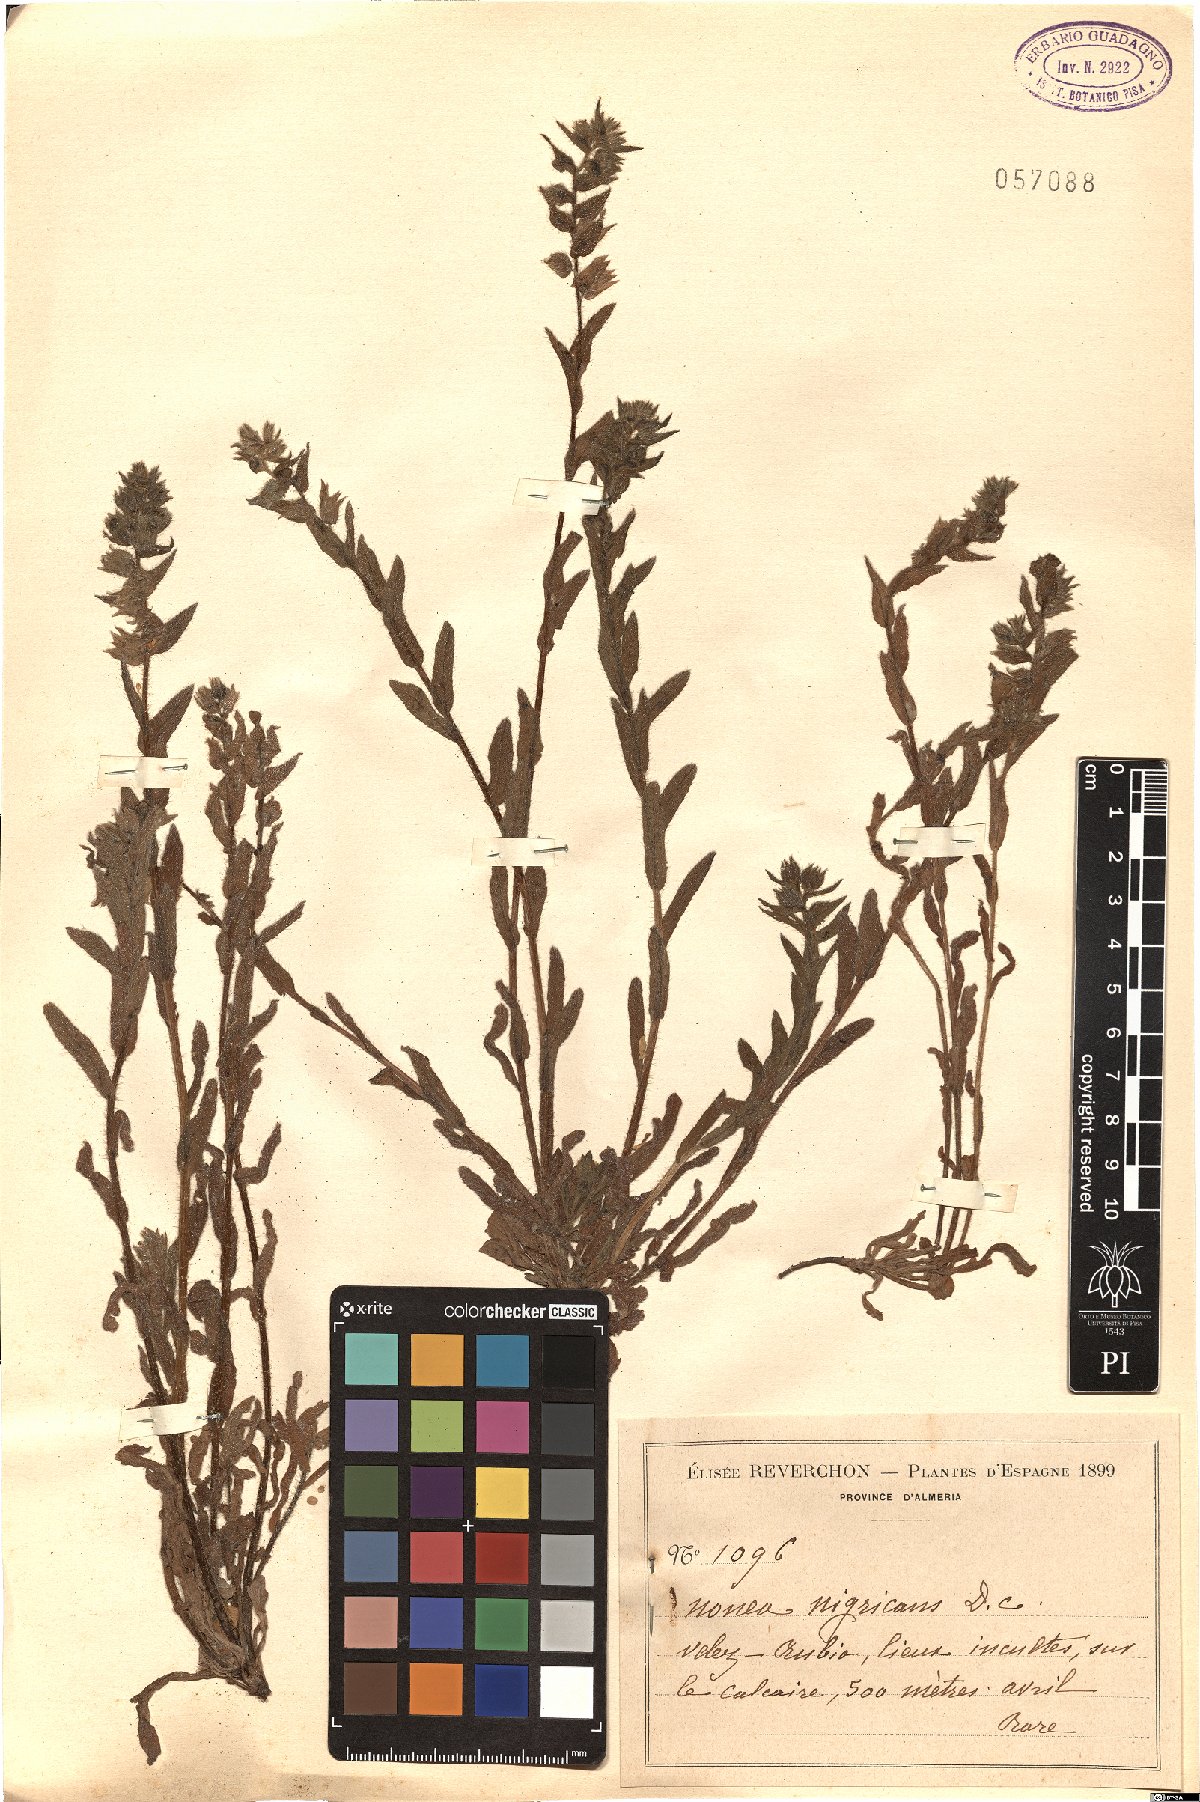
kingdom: Plantae
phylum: Tracheophyta
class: Magnoliopsida
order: Boraginales
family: Boraginaceae
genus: Nonea
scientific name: Nonea vesicaria
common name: Red monkswort
